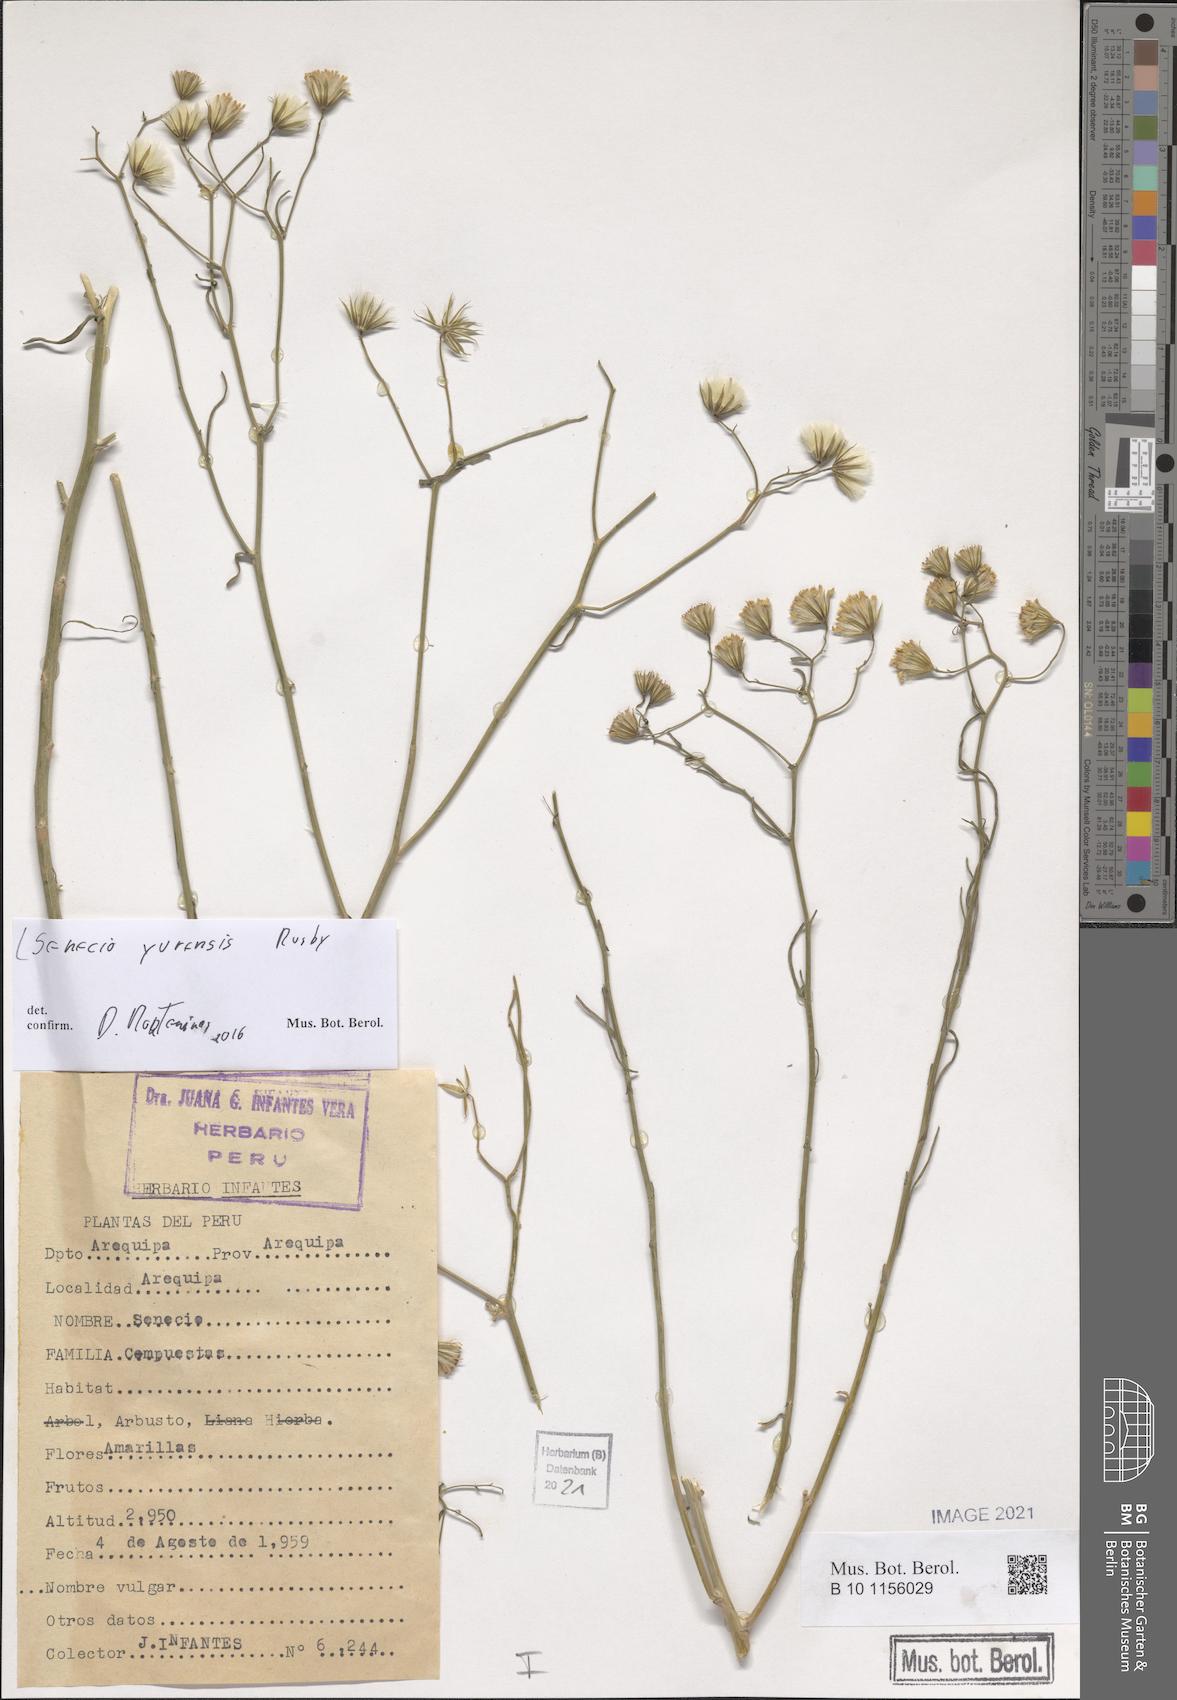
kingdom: Plantae
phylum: Tracheophyta
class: Magnoliopsida
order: Asterales
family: Asteraceae
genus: Senecio
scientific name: Senecio yurensis
